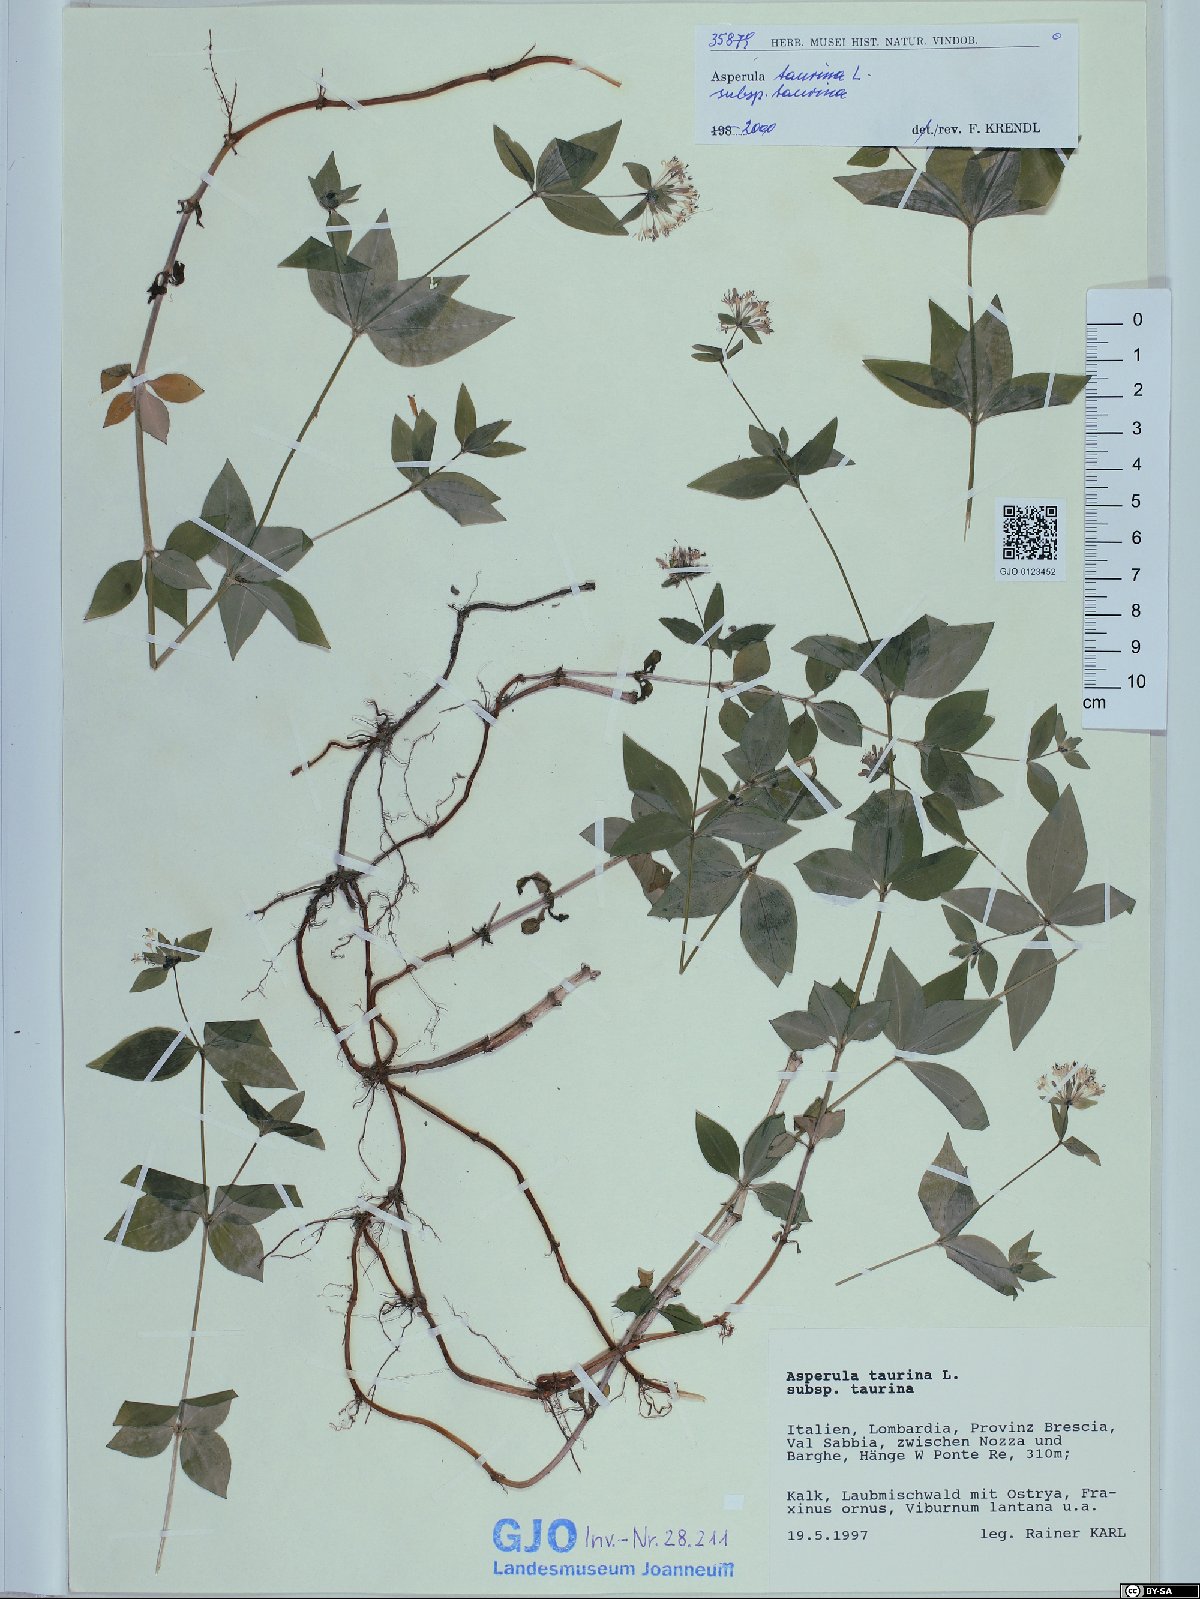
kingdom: Plantae
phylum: Tracheophyta
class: Magnoliopsida
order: Gentianales
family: Rubiaceae
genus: Asperula
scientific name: Asperula taurina
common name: Pink woodruff
